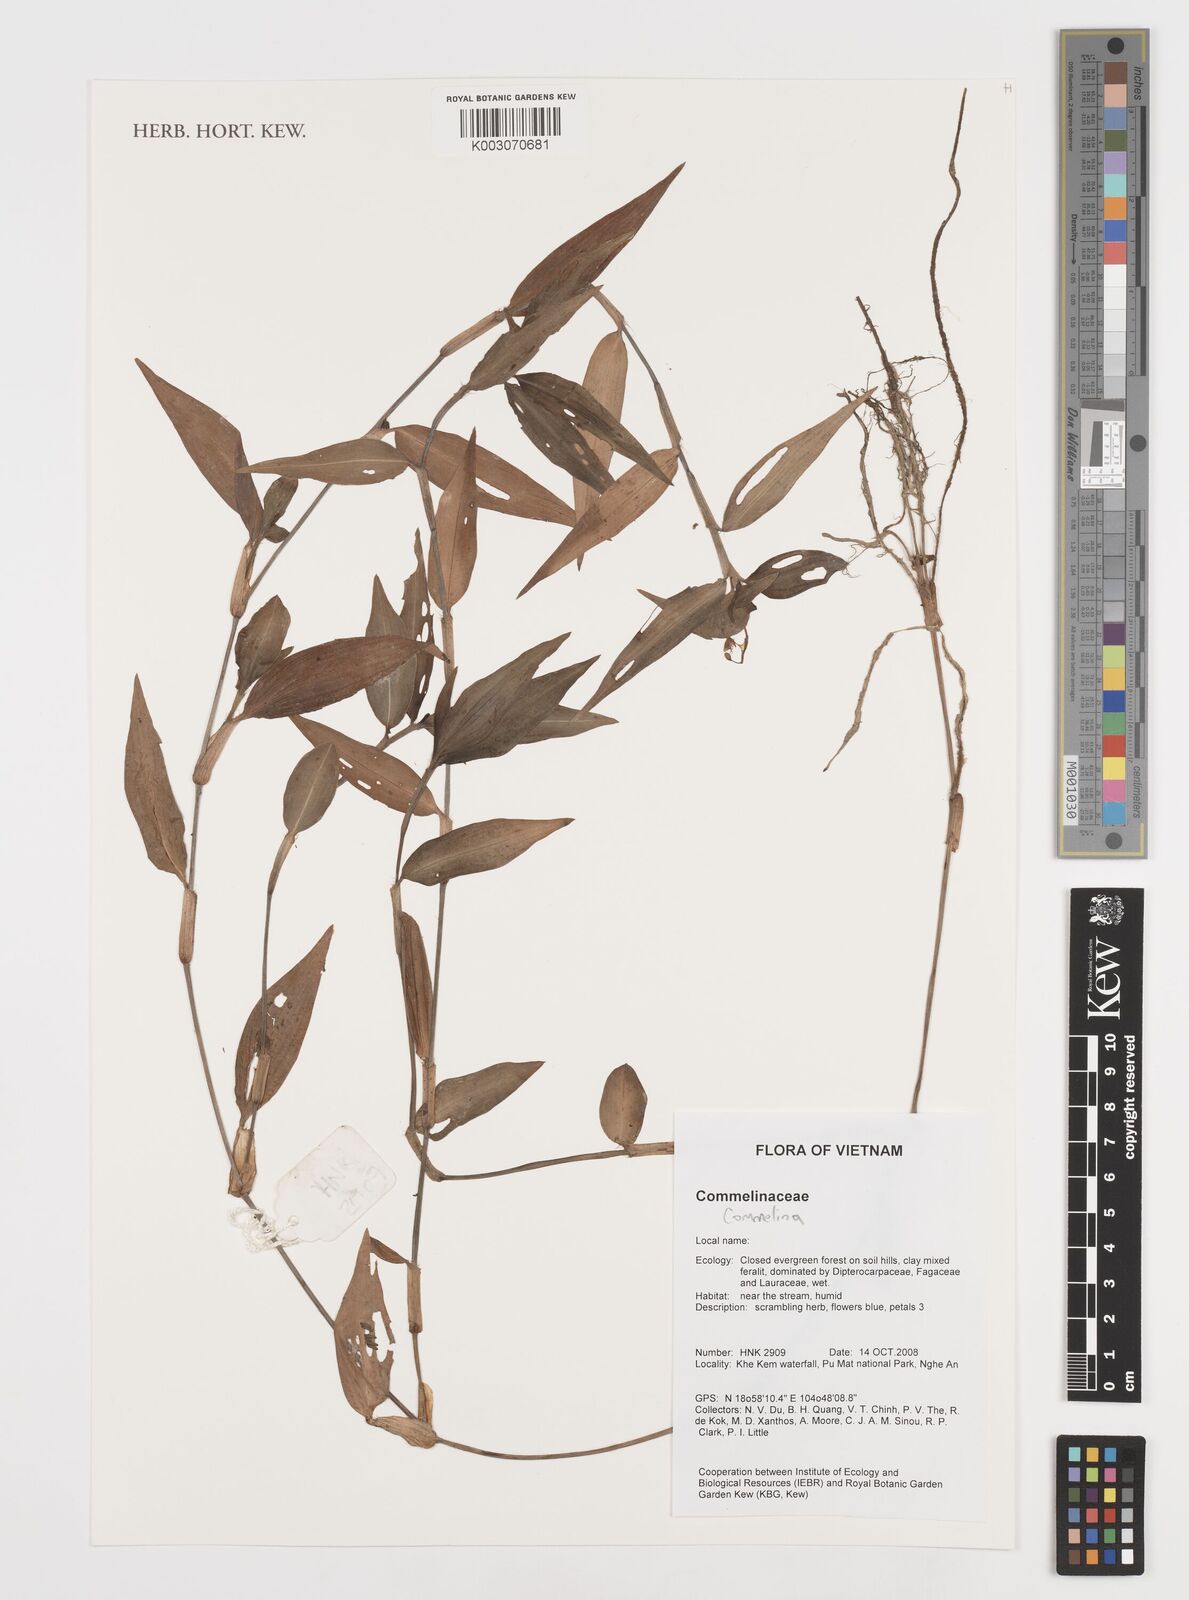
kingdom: Plantae
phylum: Tracheophyta
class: Liliopsida
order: Commelinales
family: Commelinaceae
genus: Commelina
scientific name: Commelina
